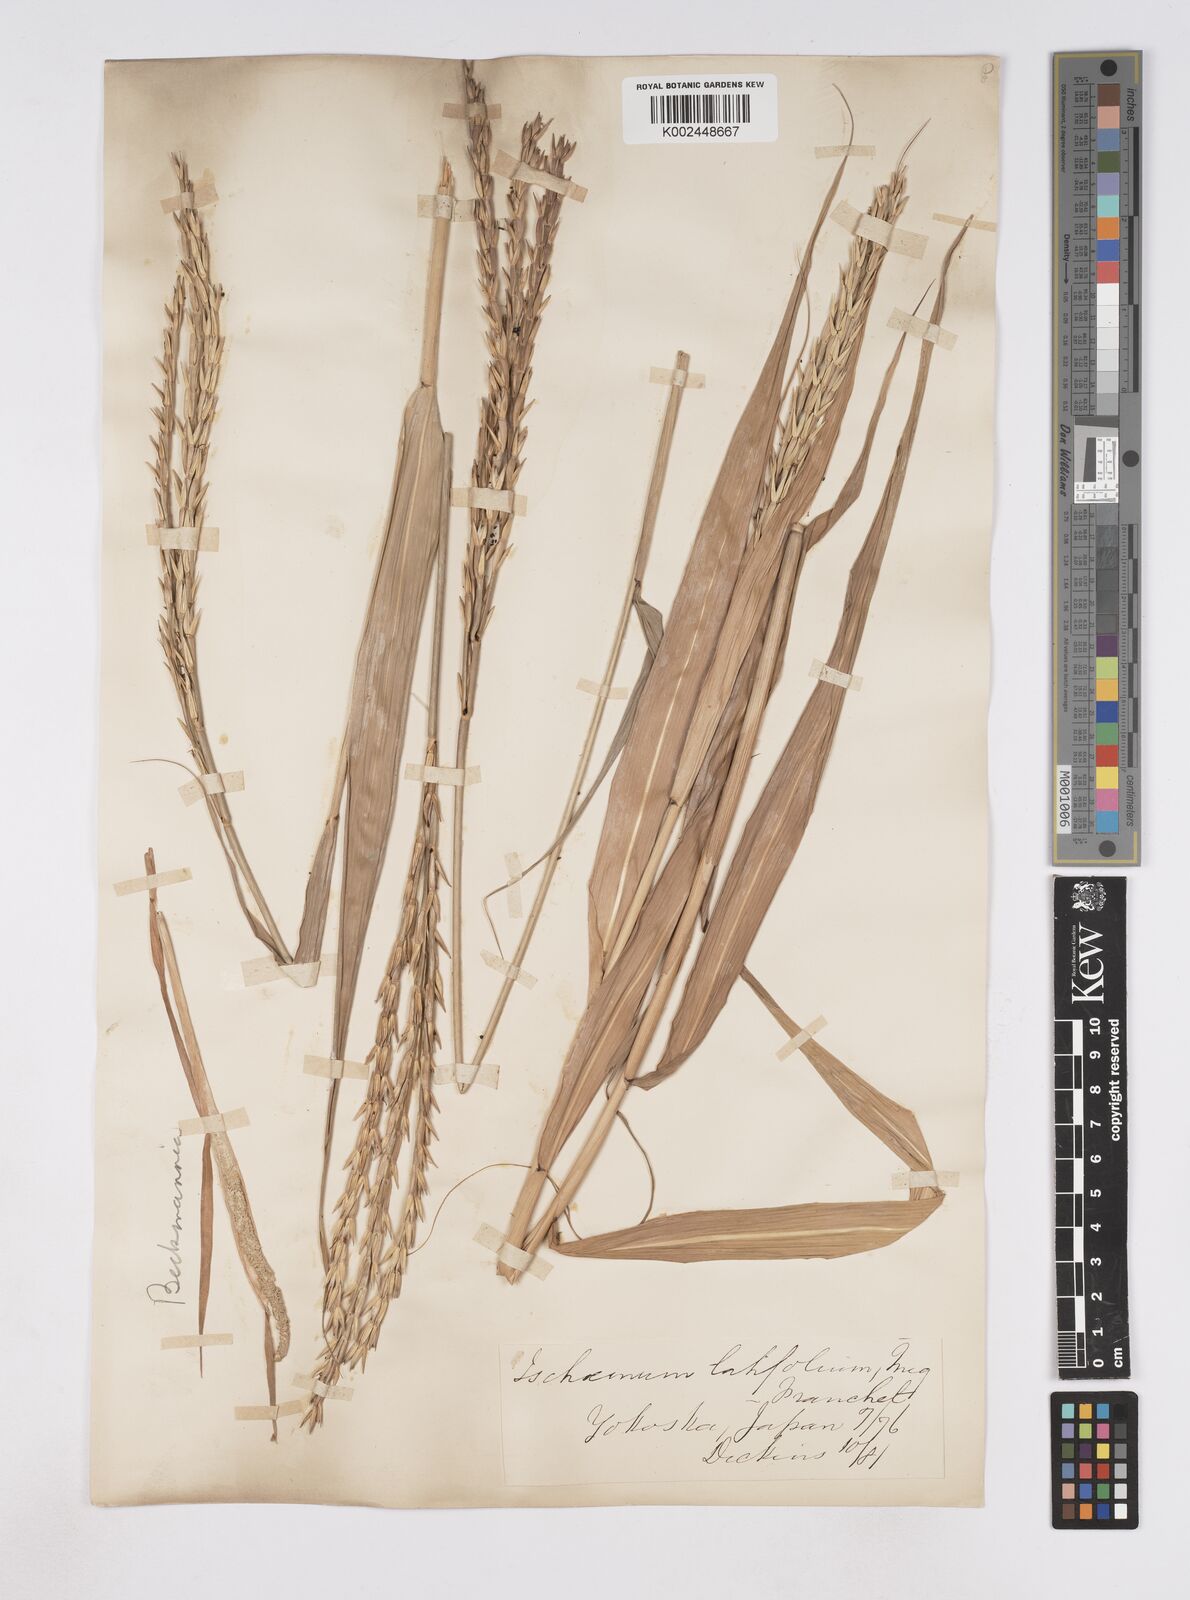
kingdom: Plantae
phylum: Tracheophyta
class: Liliopsida
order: Poales
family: Poaceae
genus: Phacelurus
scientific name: Phacelurus latifolius
